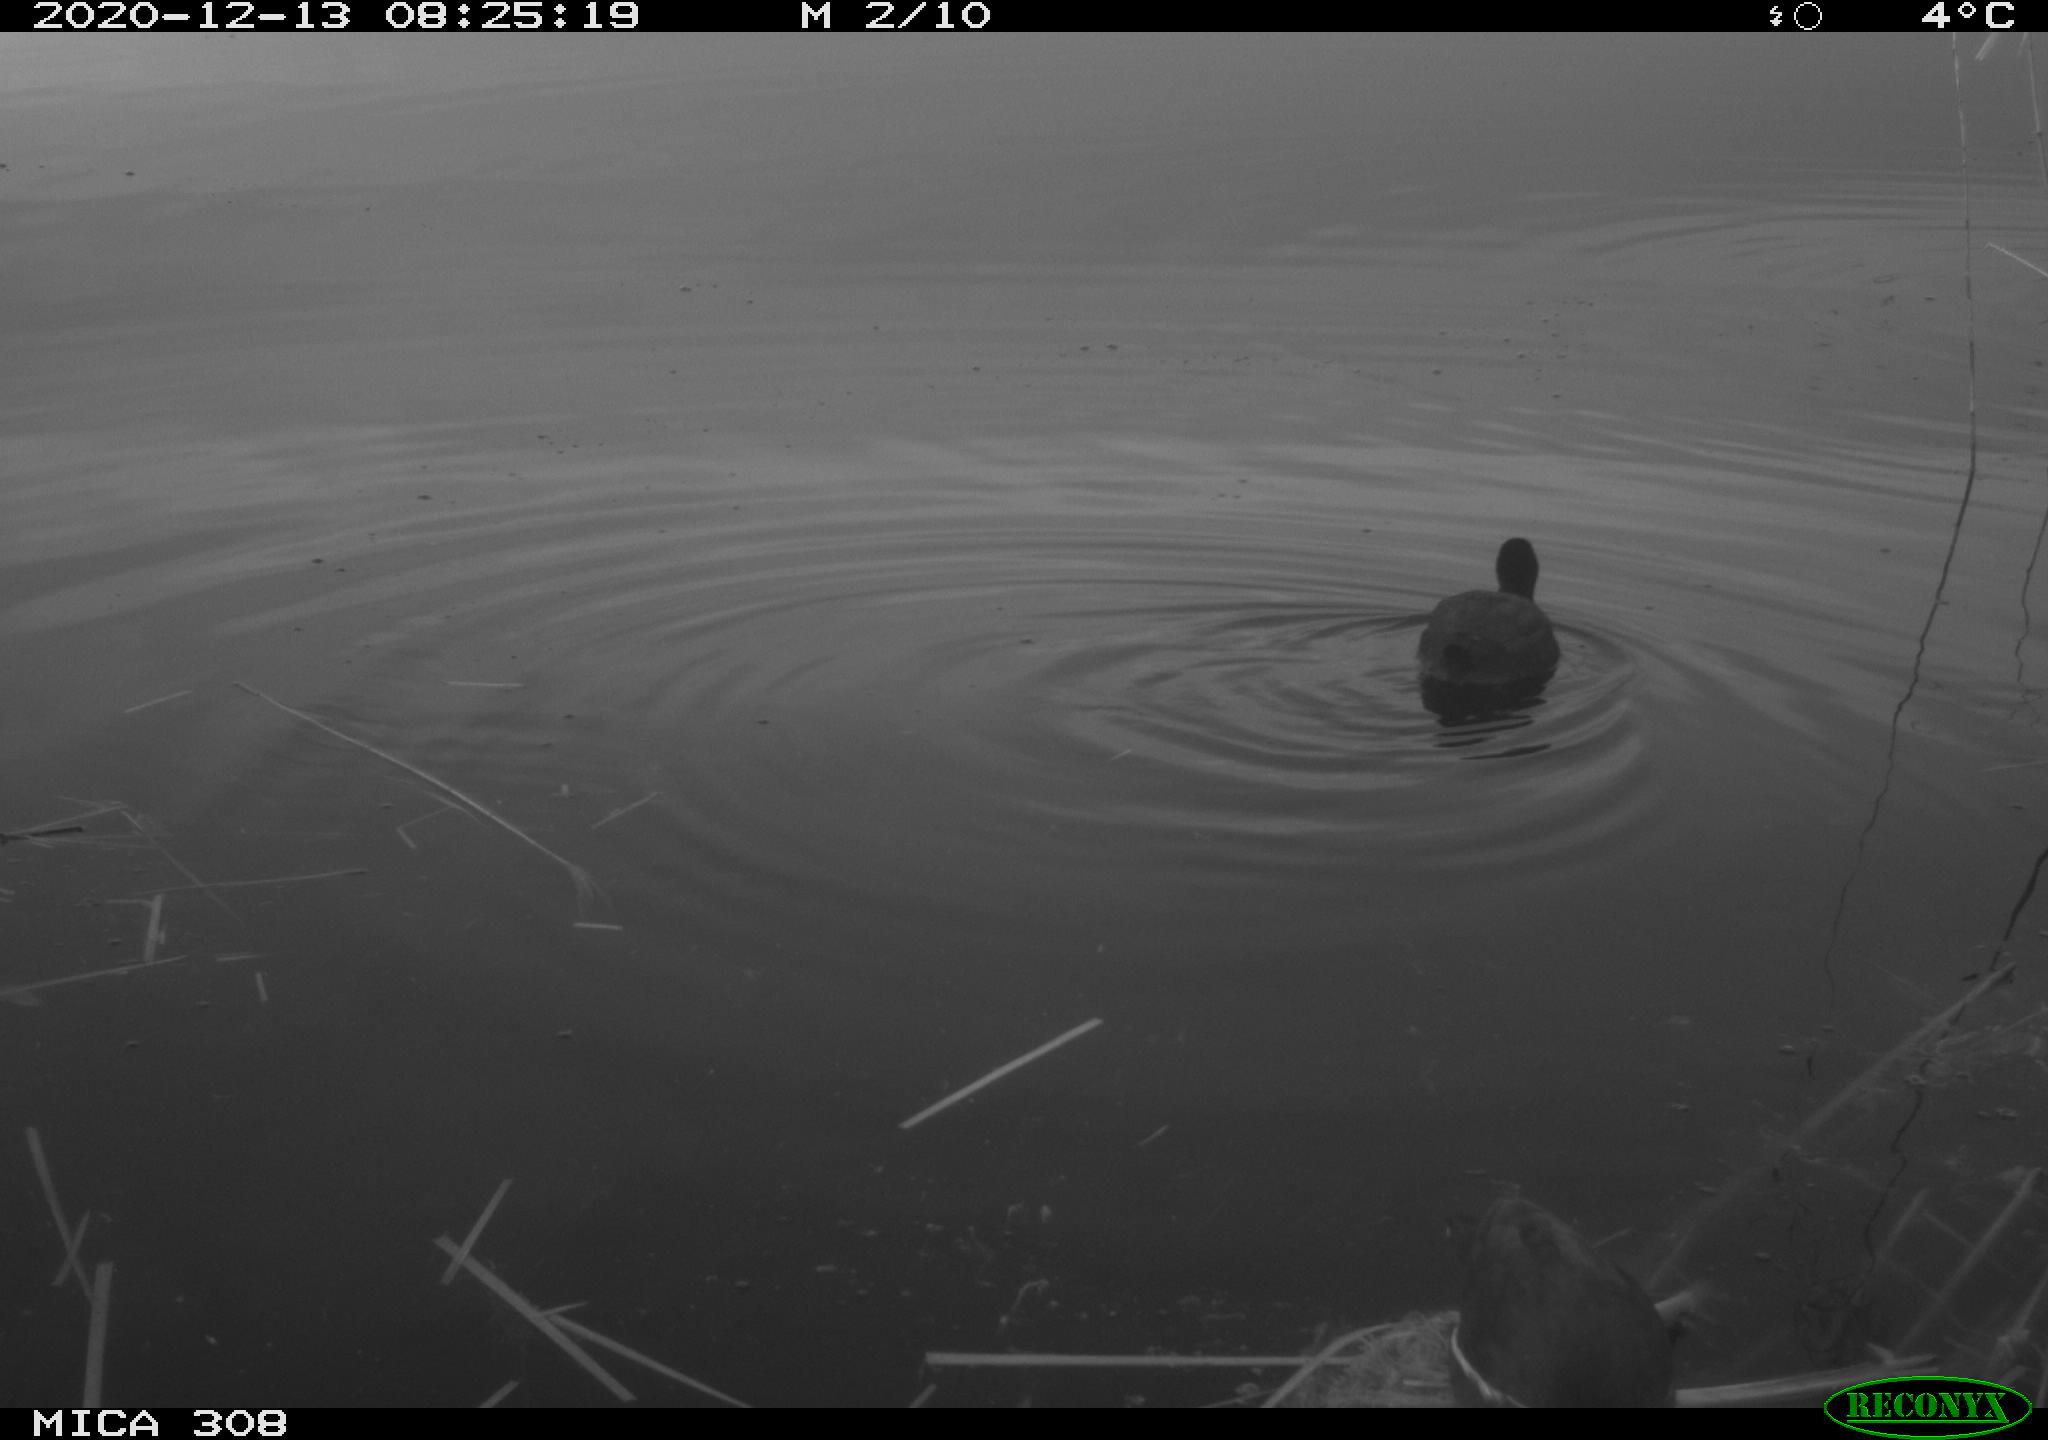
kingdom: Animalia
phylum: Chordata
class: Aves
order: Gruiformes
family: Rallidae
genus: Fulica
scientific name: Fulica atra
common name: Eurasian coot
